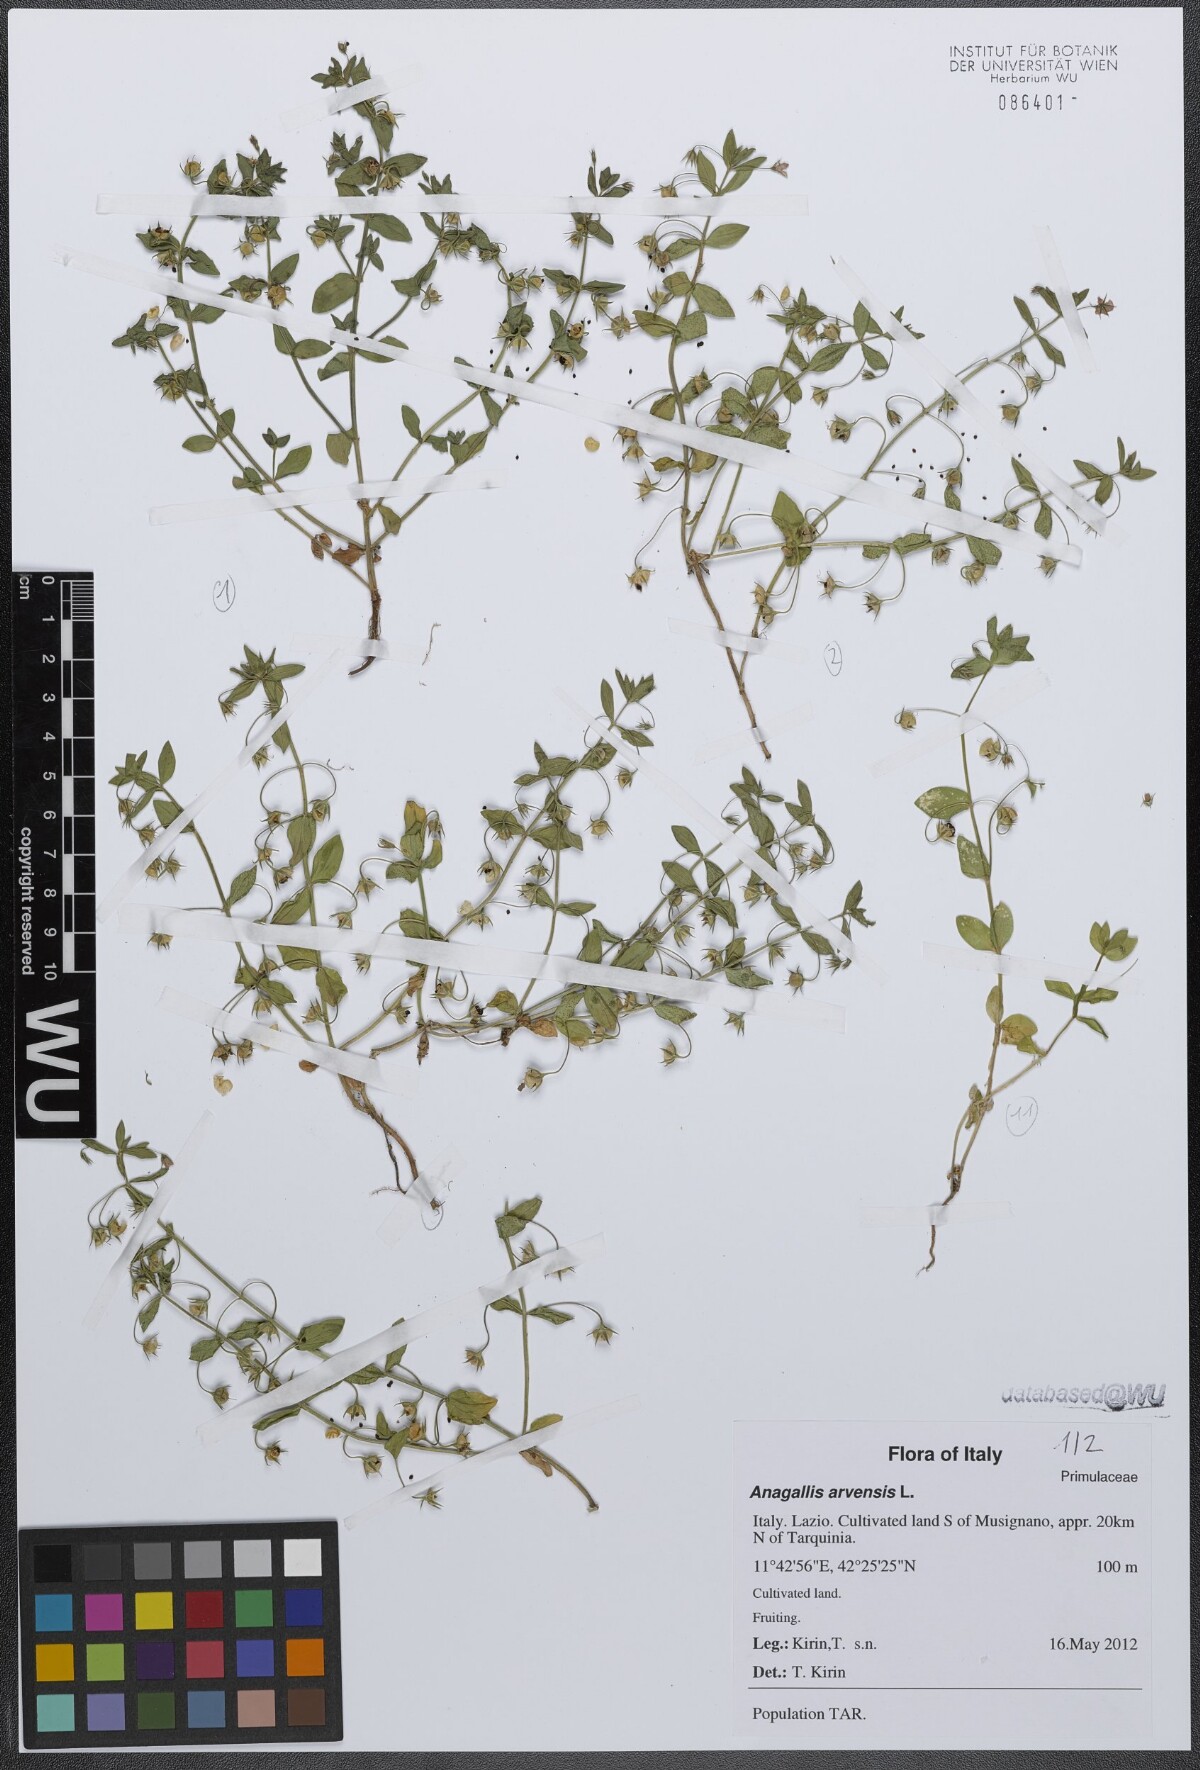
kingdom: Plantae
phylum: Tracheophyta
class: Magnoliopsida
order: Ericales
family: Primulaceae
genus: Lysimachia
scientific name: Lysimachia arvensis
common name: Scarlet pimpernel
